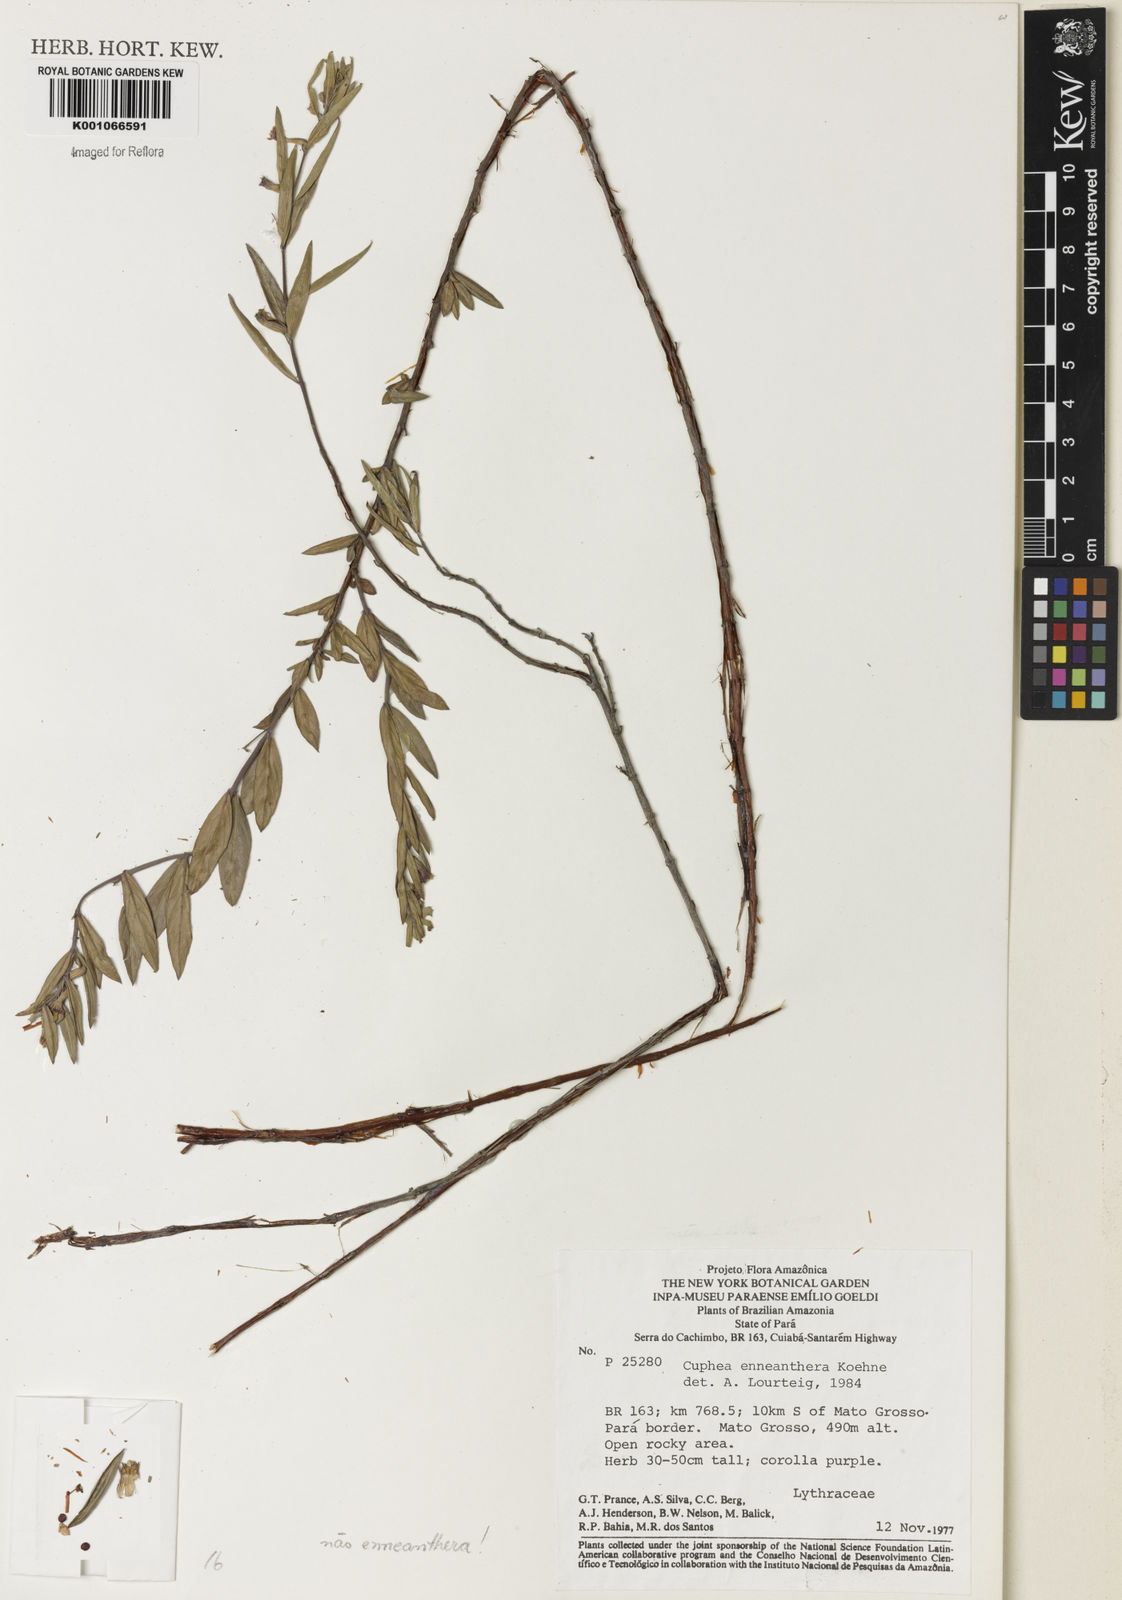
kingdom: Plantae
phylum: Tracheophyta
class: Magnoliopsida
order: Myrtales
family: Lythraceae
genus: Cuphea
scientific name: Cuphea retrorsicapilla
